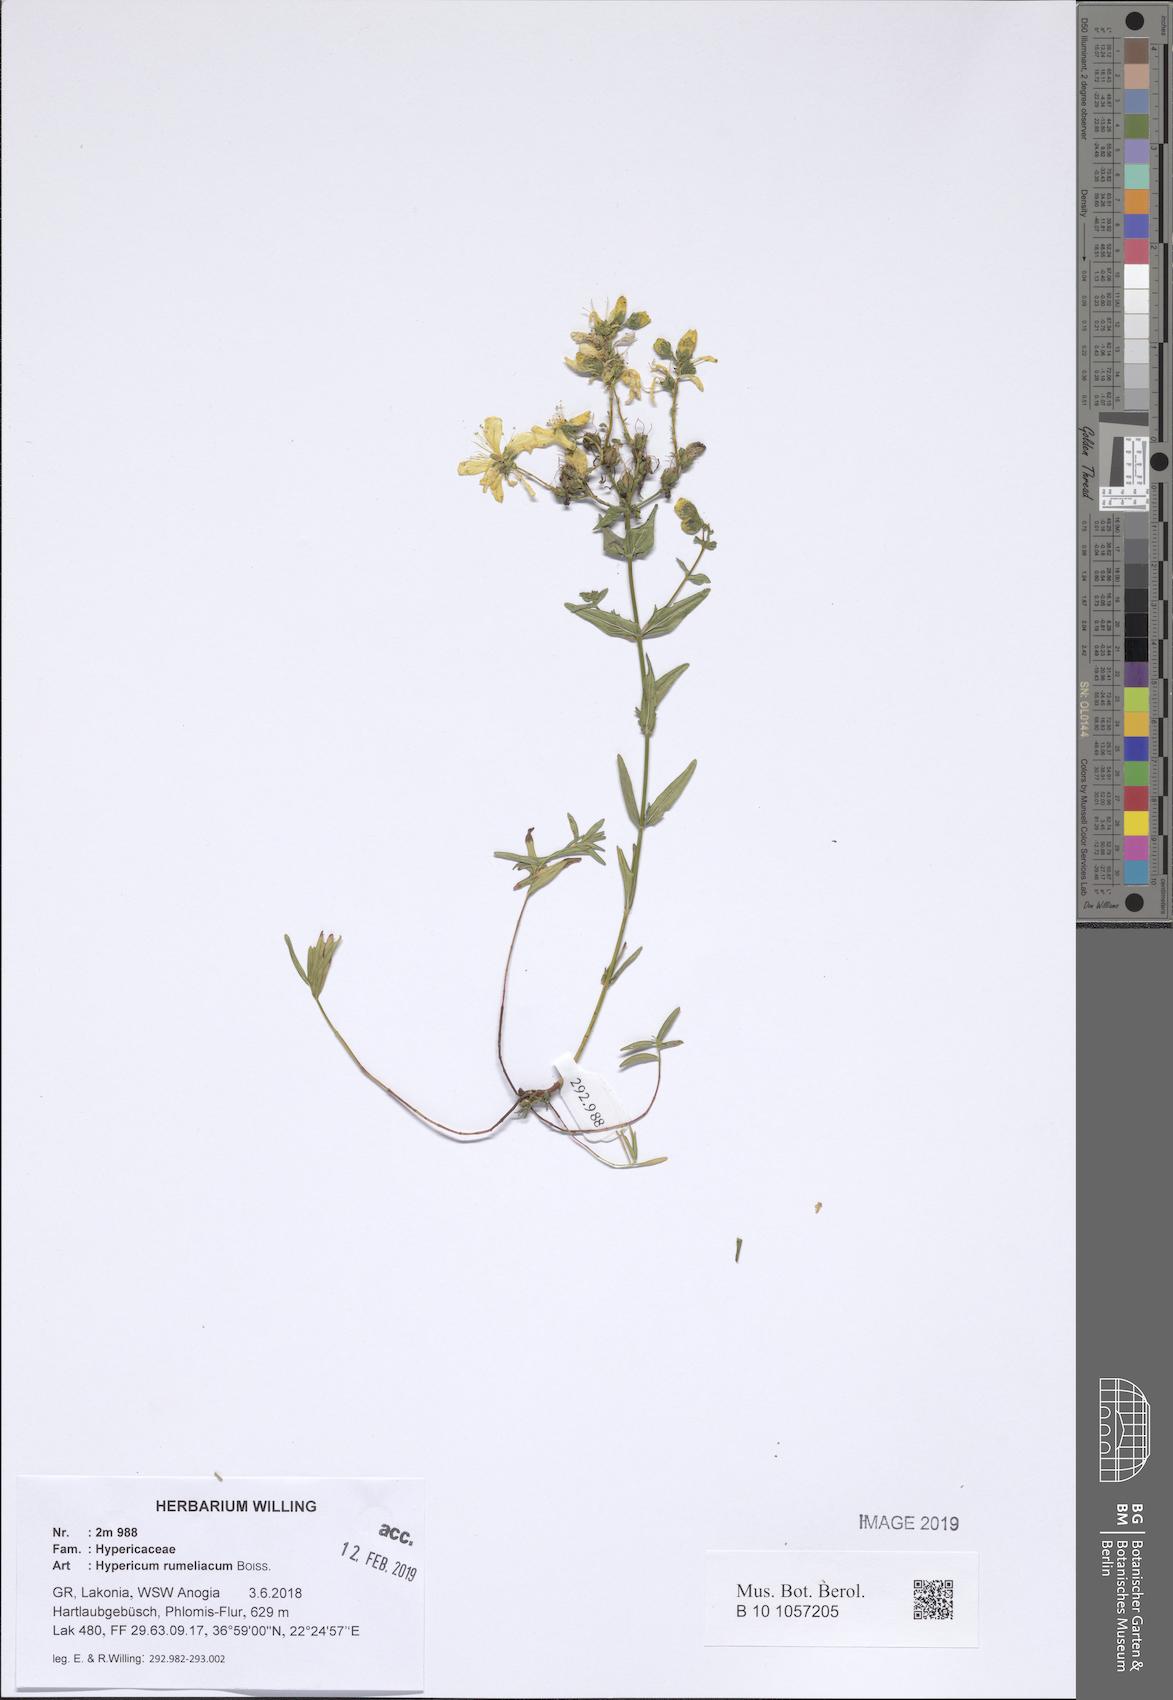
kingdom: Plantae
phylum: Tracheophyta
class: Magnoliopsida
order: Malpighiales
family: Hypericaceae
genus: Hypericum
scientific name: Hypericum rumeliacum
